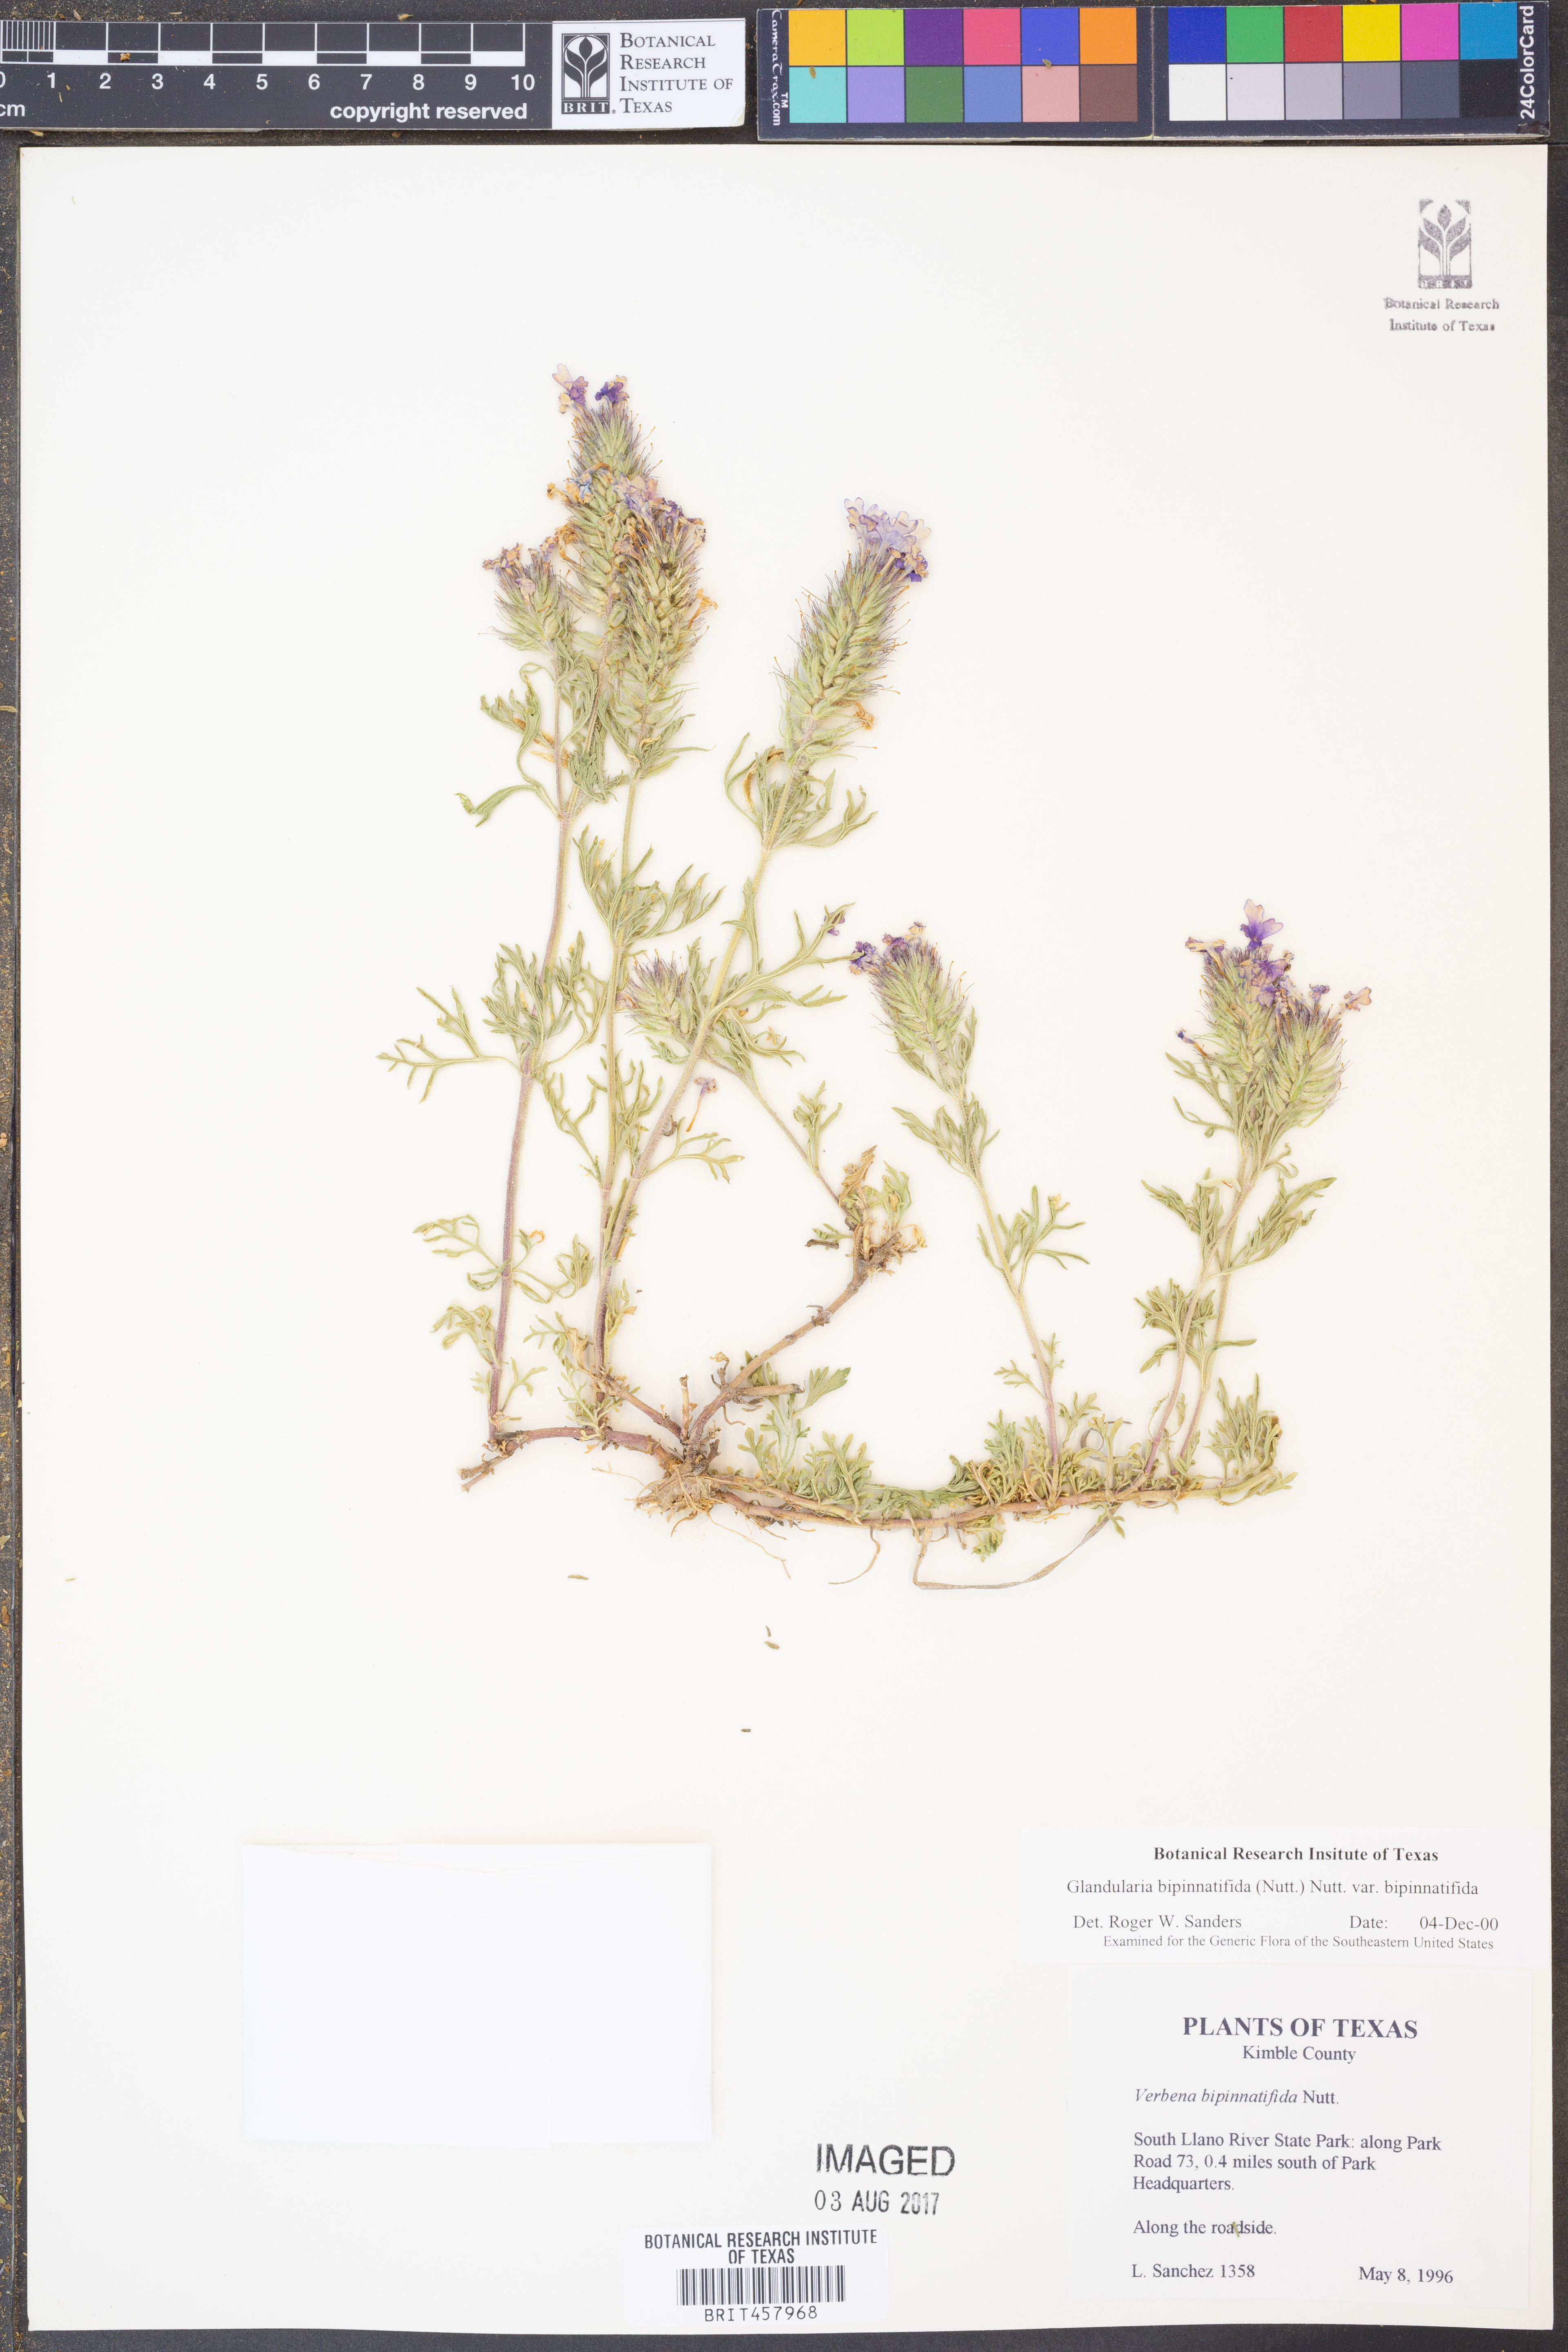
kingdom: Plantae
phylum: Tracheophyta
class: Magnoliopsida
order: Lamiales
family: Verbenaceae
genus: Verbena
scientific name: Verbena bipinnatifida
